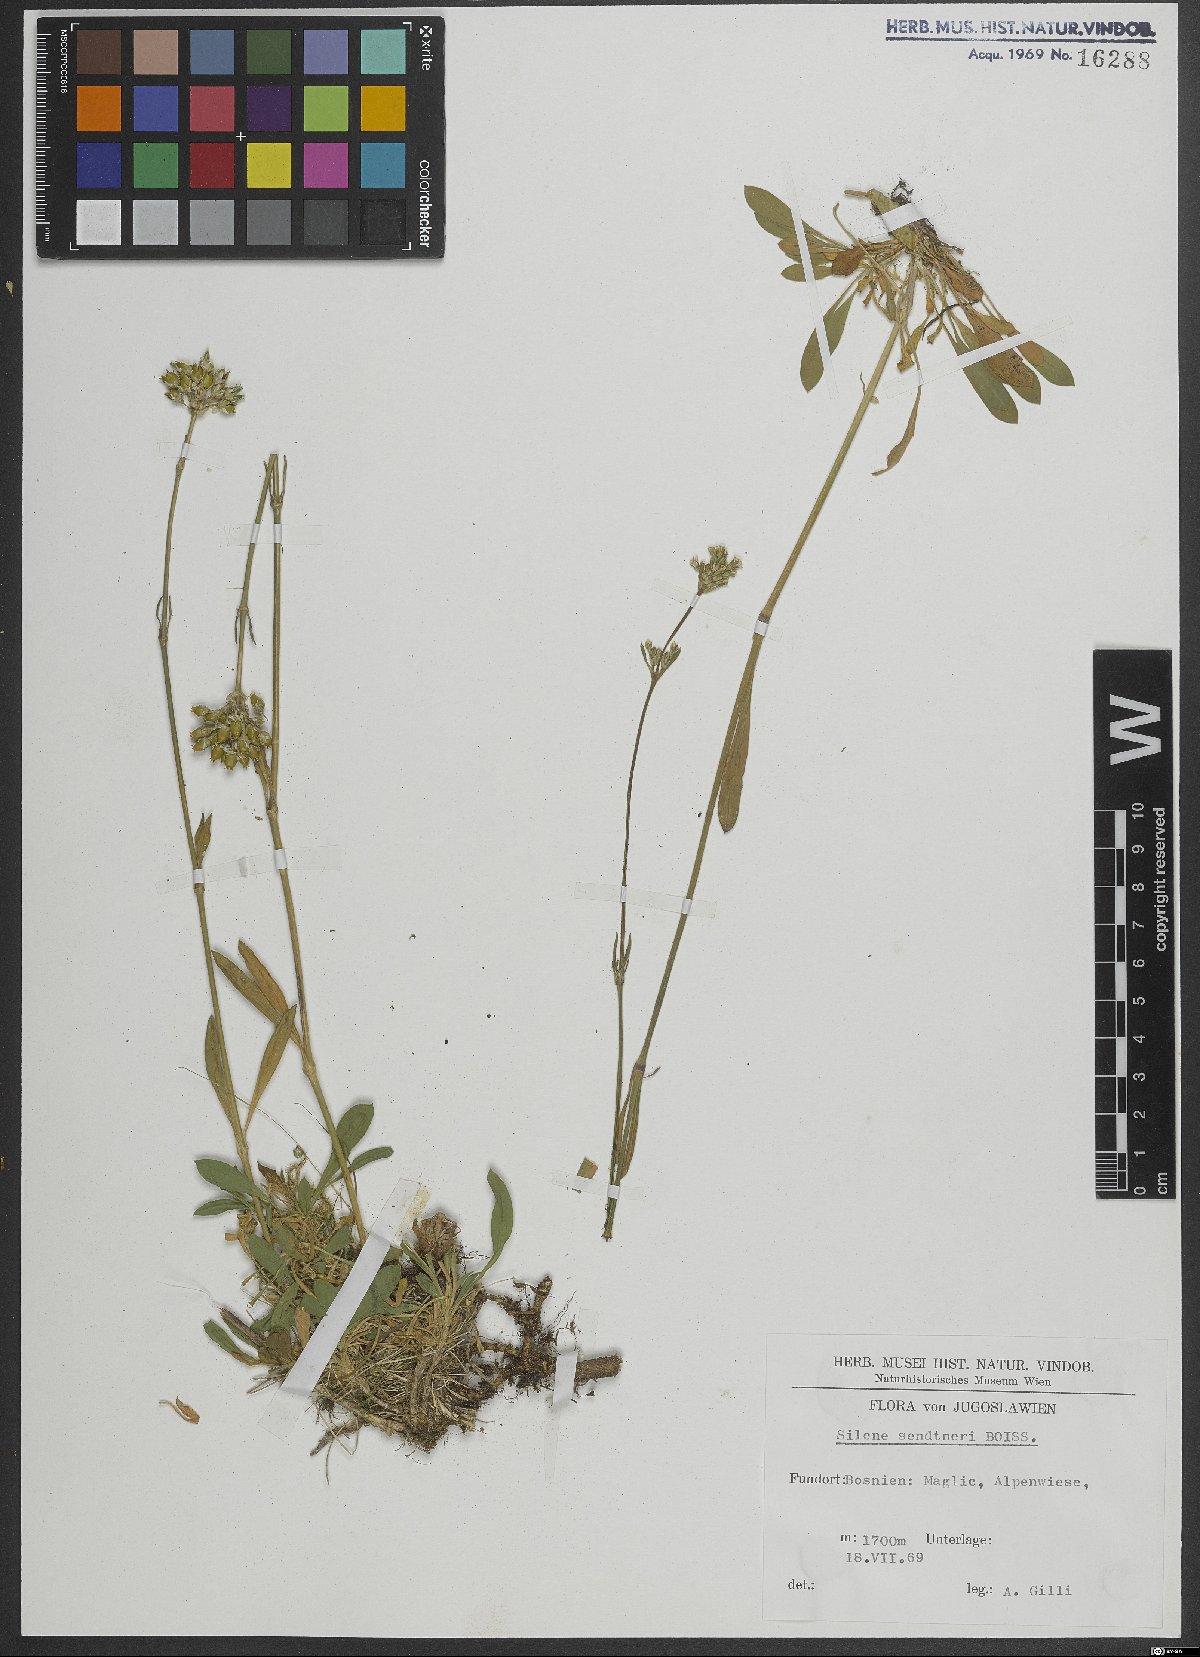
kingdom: Plantae
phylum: Tracheophyta
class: Magnoliopsida
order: Caryophyllales
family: Caryophyllaceae
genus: Silene
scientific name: Silene sendtneri
